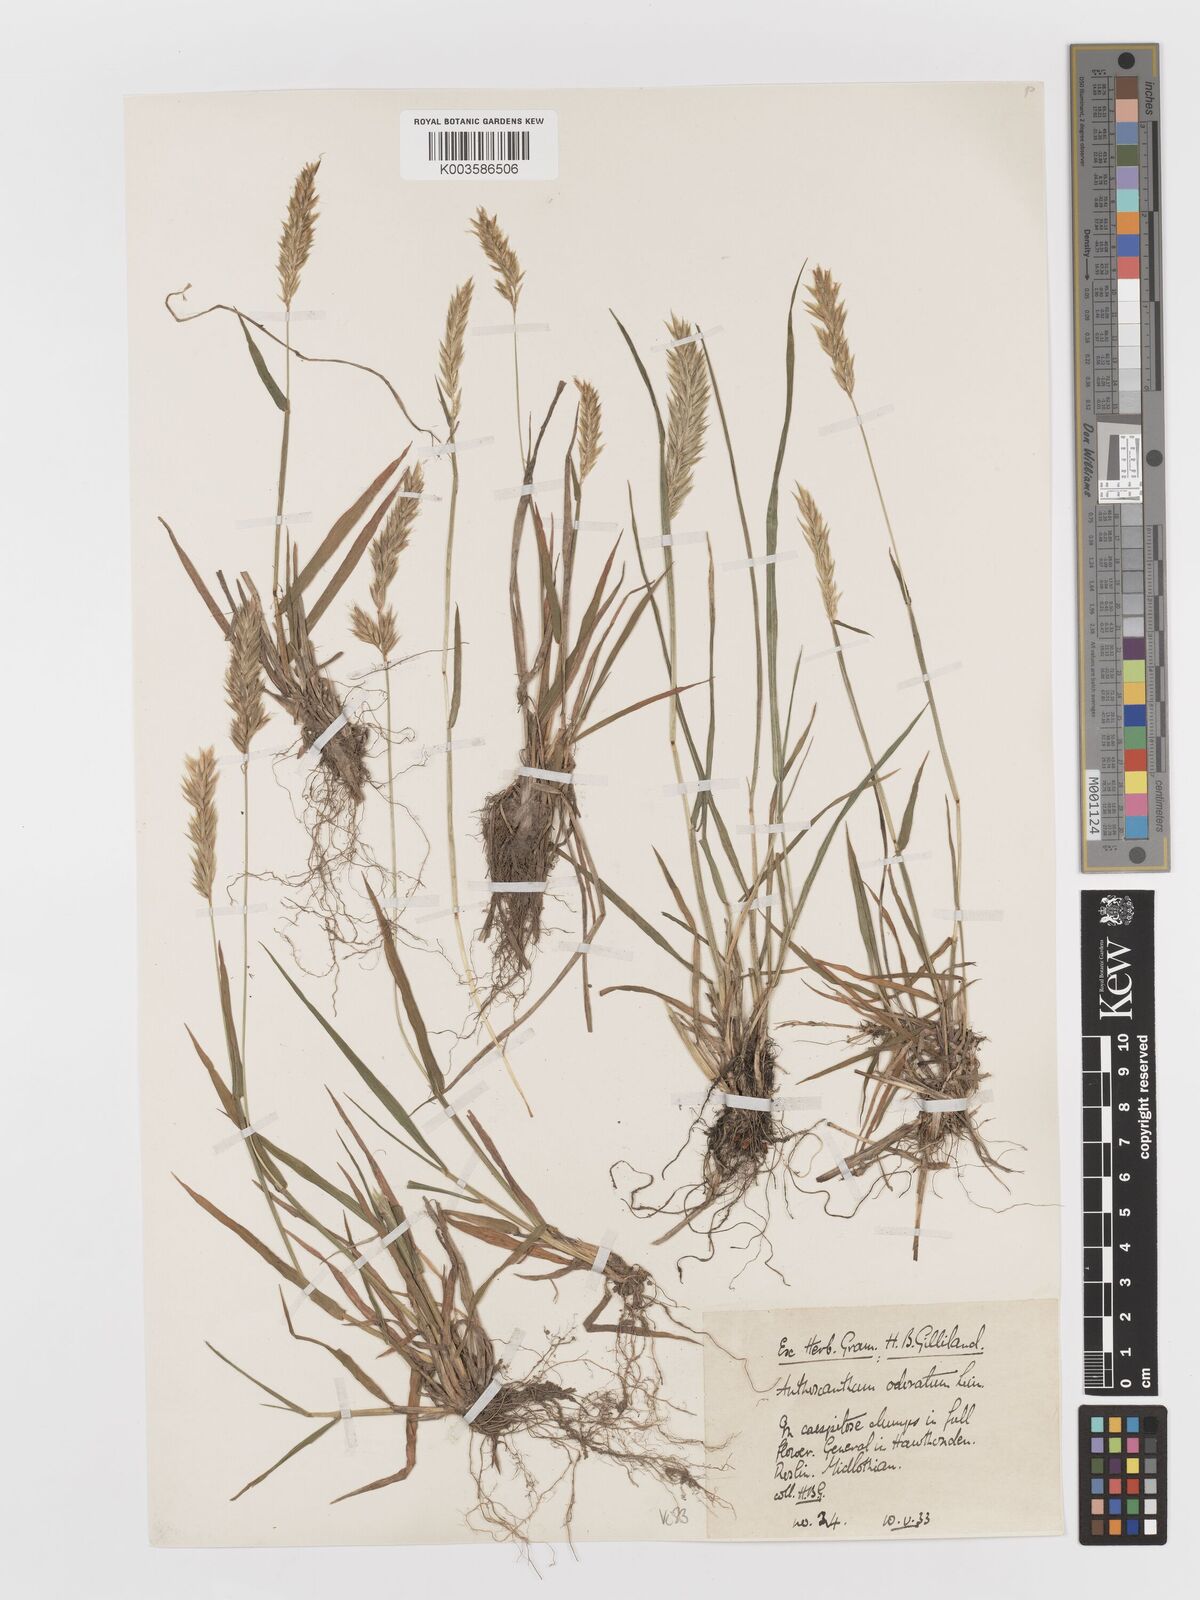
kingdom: Plantae
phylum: Tracheophyta
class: Liliopsida
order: Poales
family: Poaceae
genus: Anthoxanthum
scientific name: Anthoxanthum odoratum
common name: Sweet vernalgrass
